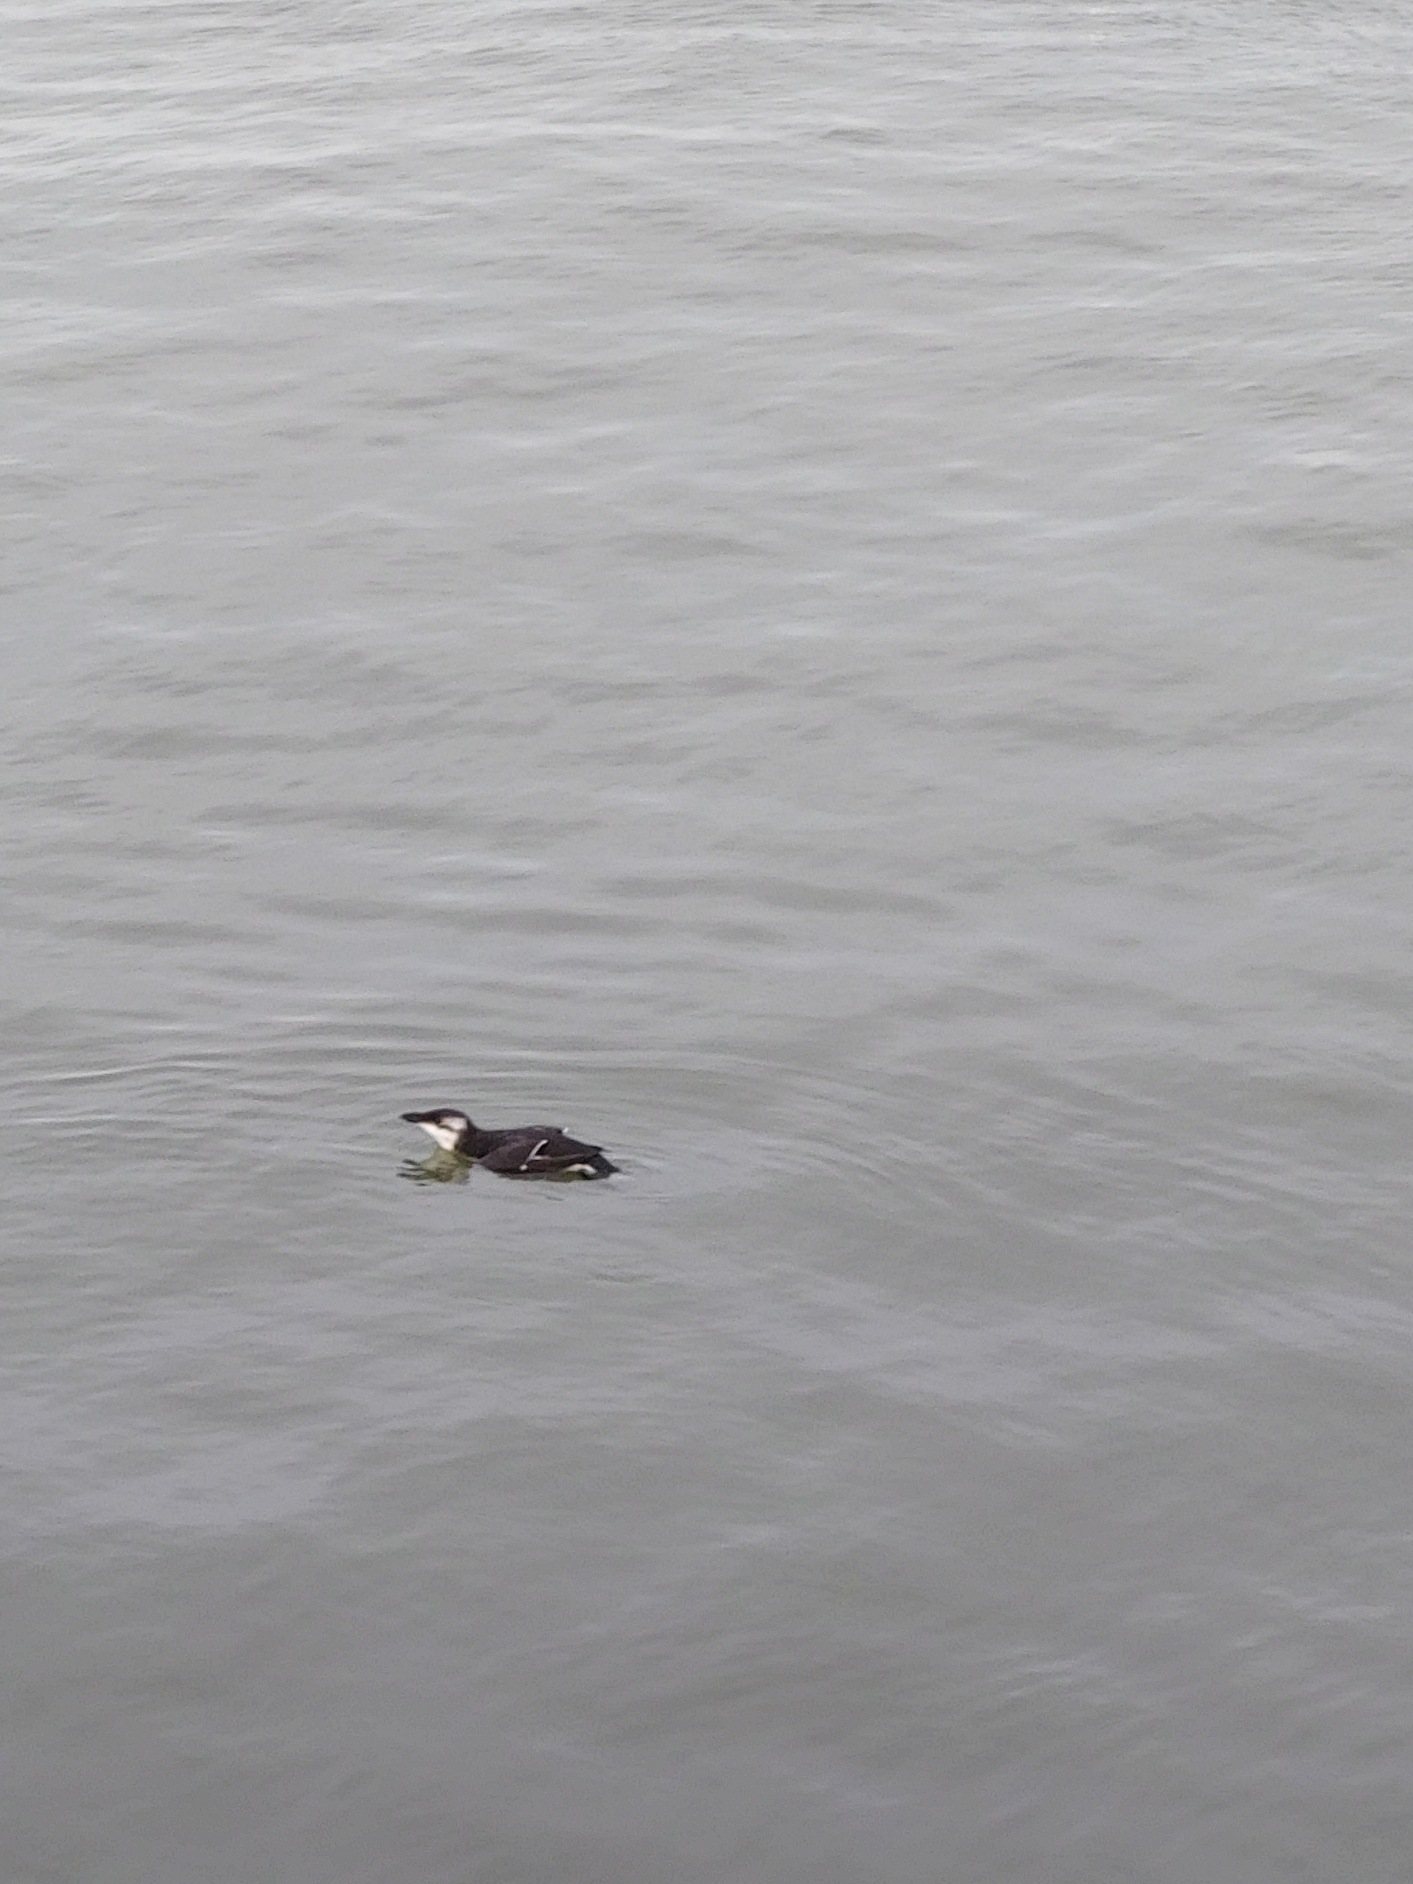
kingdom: Animalia
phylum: Chordata
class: Aves
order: Charadriiformes
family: Alcidae
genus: Alca
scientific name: Alca torda
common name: Alk
